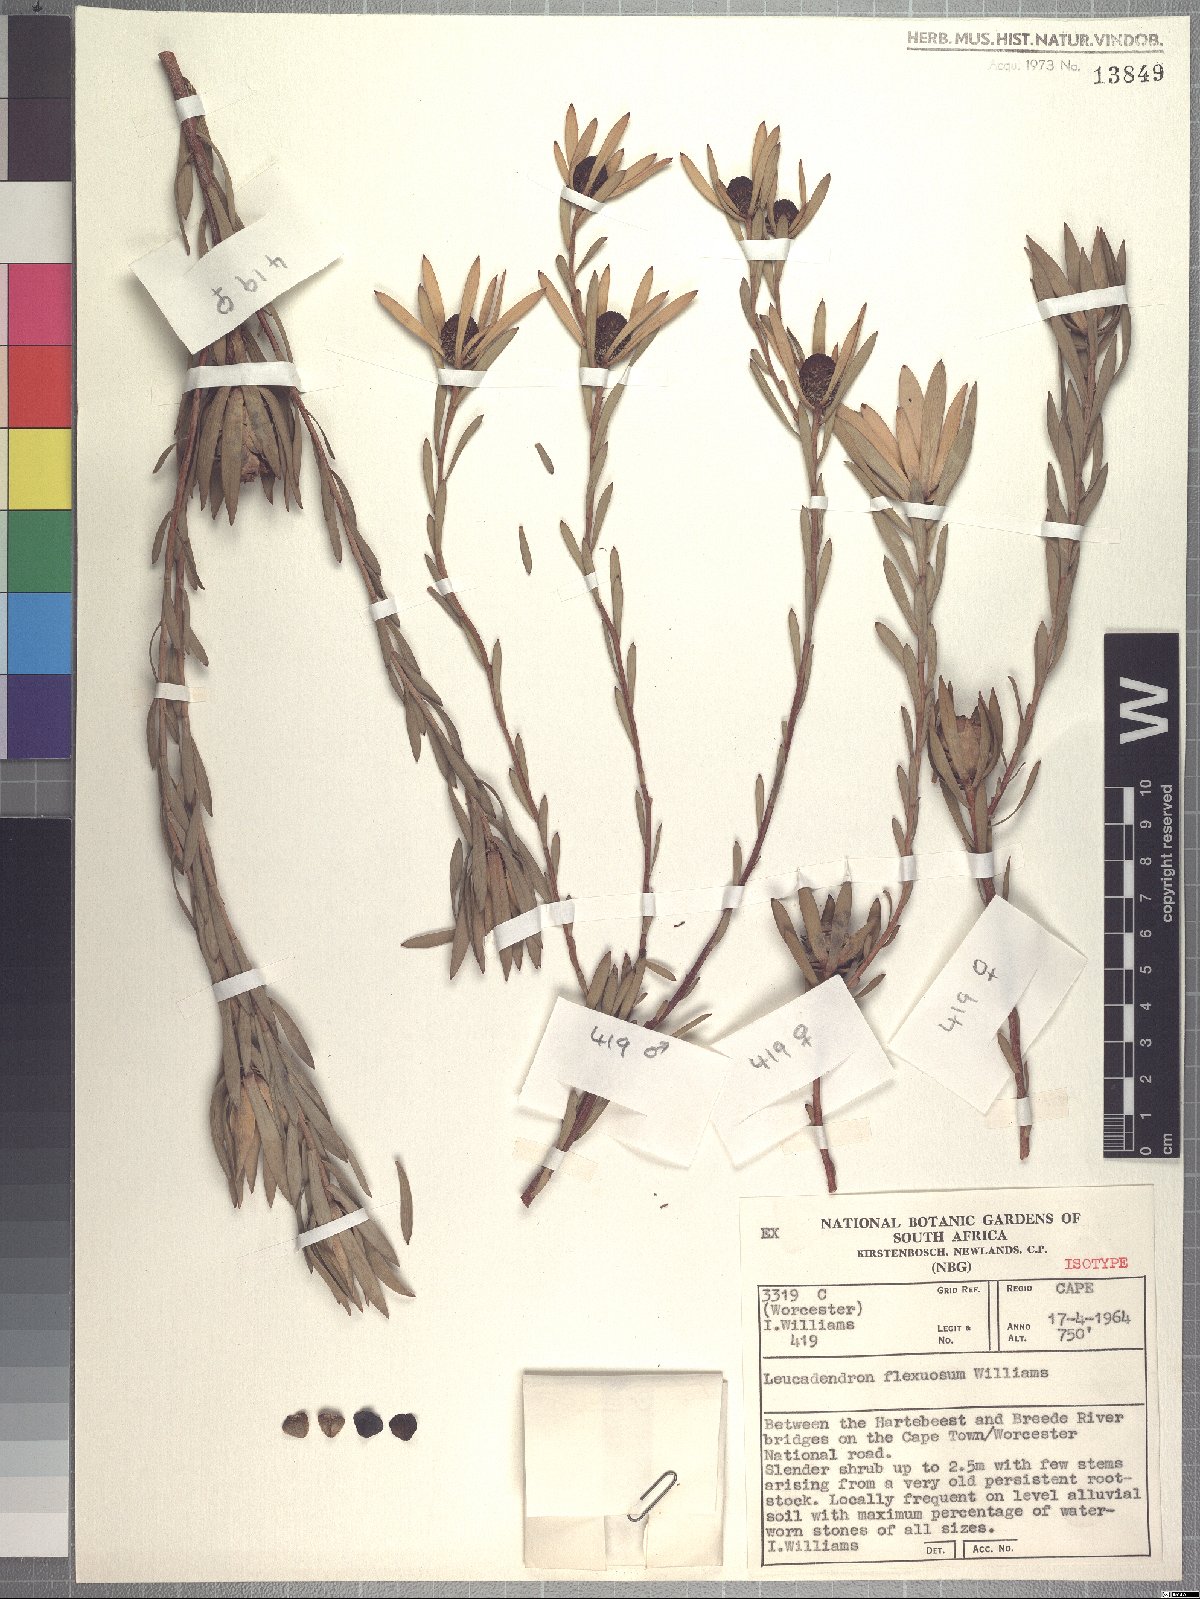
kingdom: Plantae
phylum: Tracheophyta
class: Magnoliopsida
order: Proteales
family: Proteaceae
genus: Leucadendron
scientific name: Leucadendron flexuosum
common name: Worcester conebush
